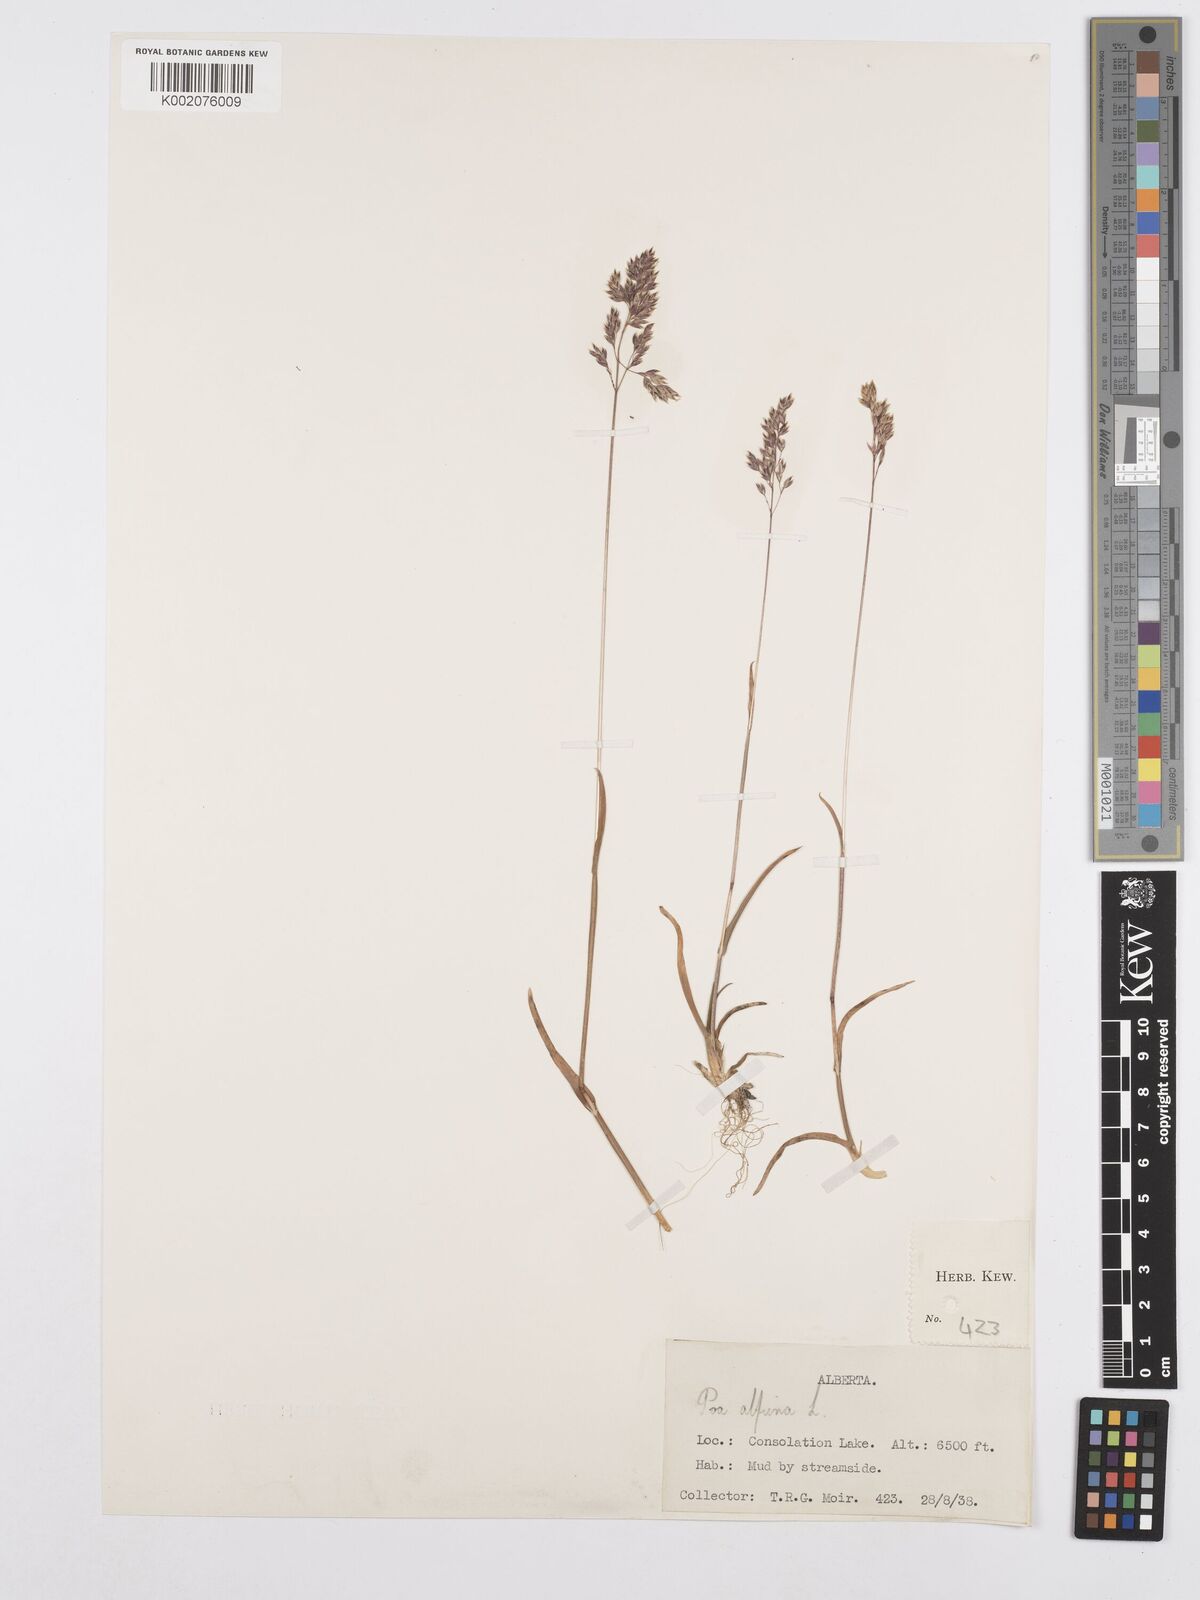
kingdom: Plantae
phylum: Tracheophyta
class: Liliopsida
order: Poales
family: Poaceae
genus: Poa
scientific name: Poa alpina
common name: Alpine bluegrass
